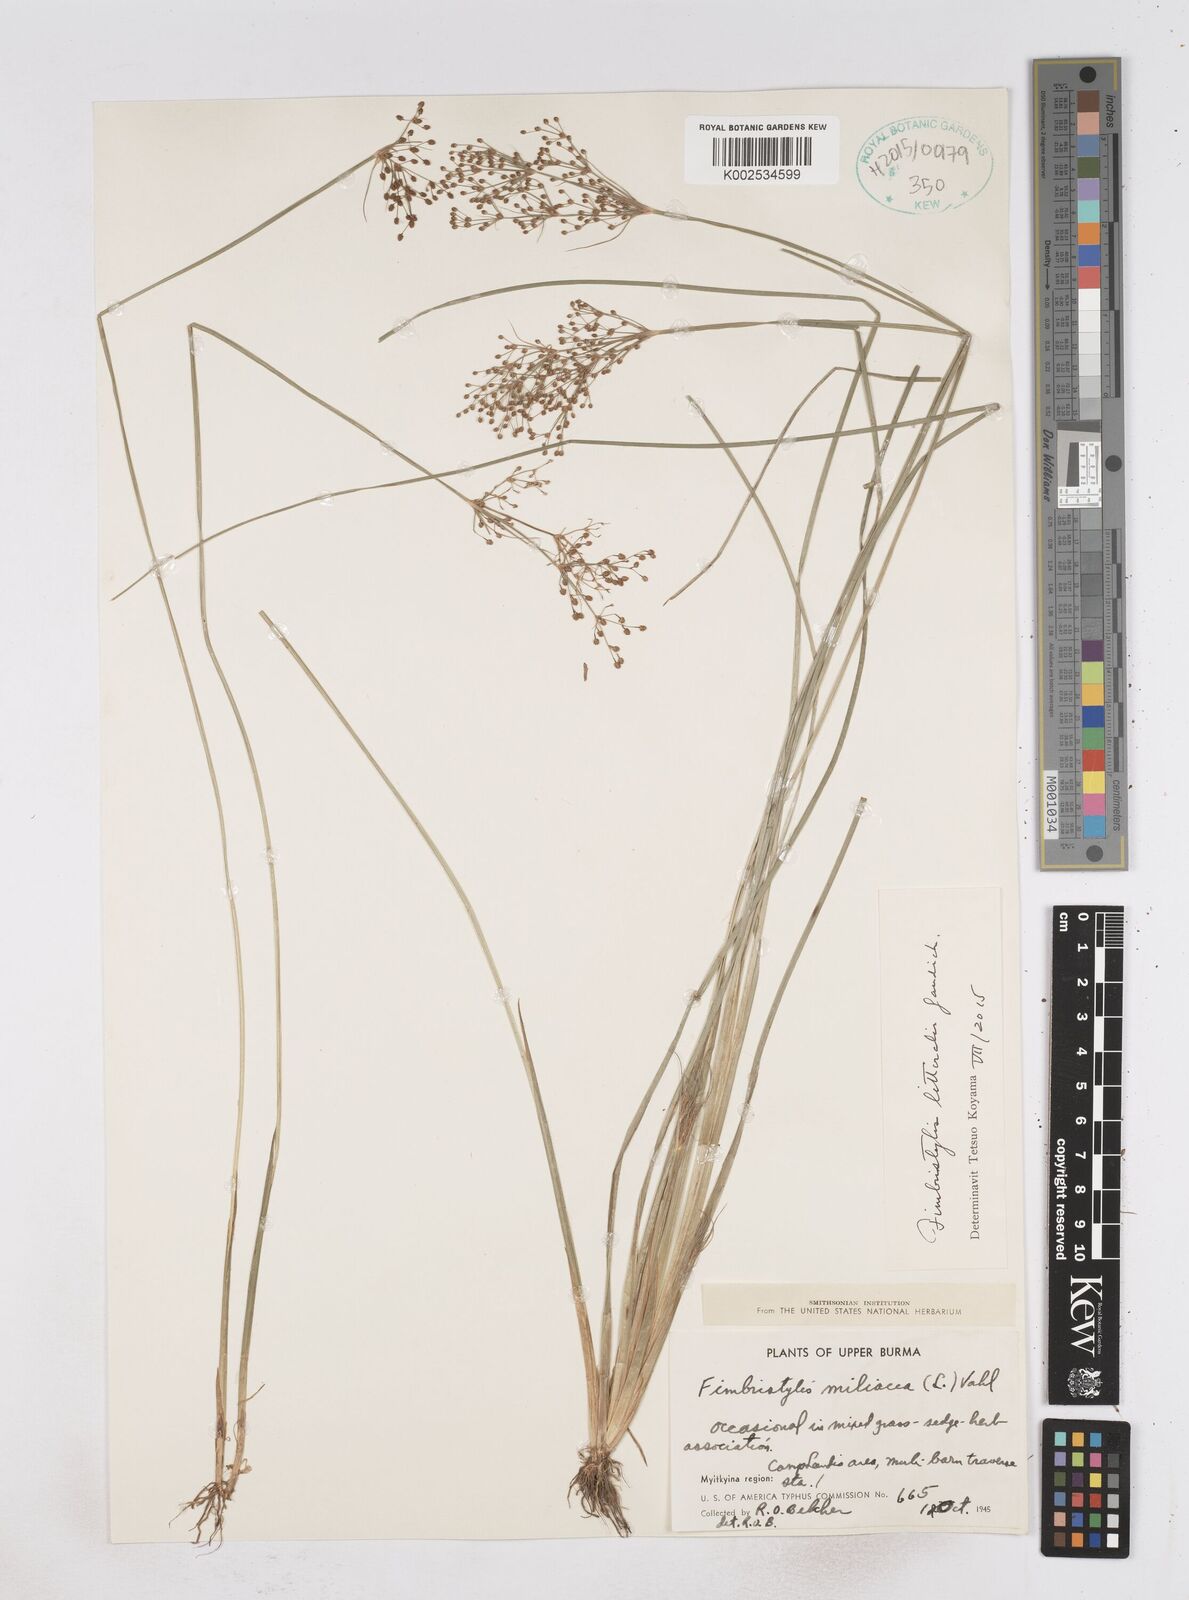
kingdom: Plantae
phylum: Tracheophyta
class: Liliopsida
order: Poales
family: Cyperaceae
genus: Fimbristylis
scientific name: Fimbristylis littoralis
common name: Fimbry
